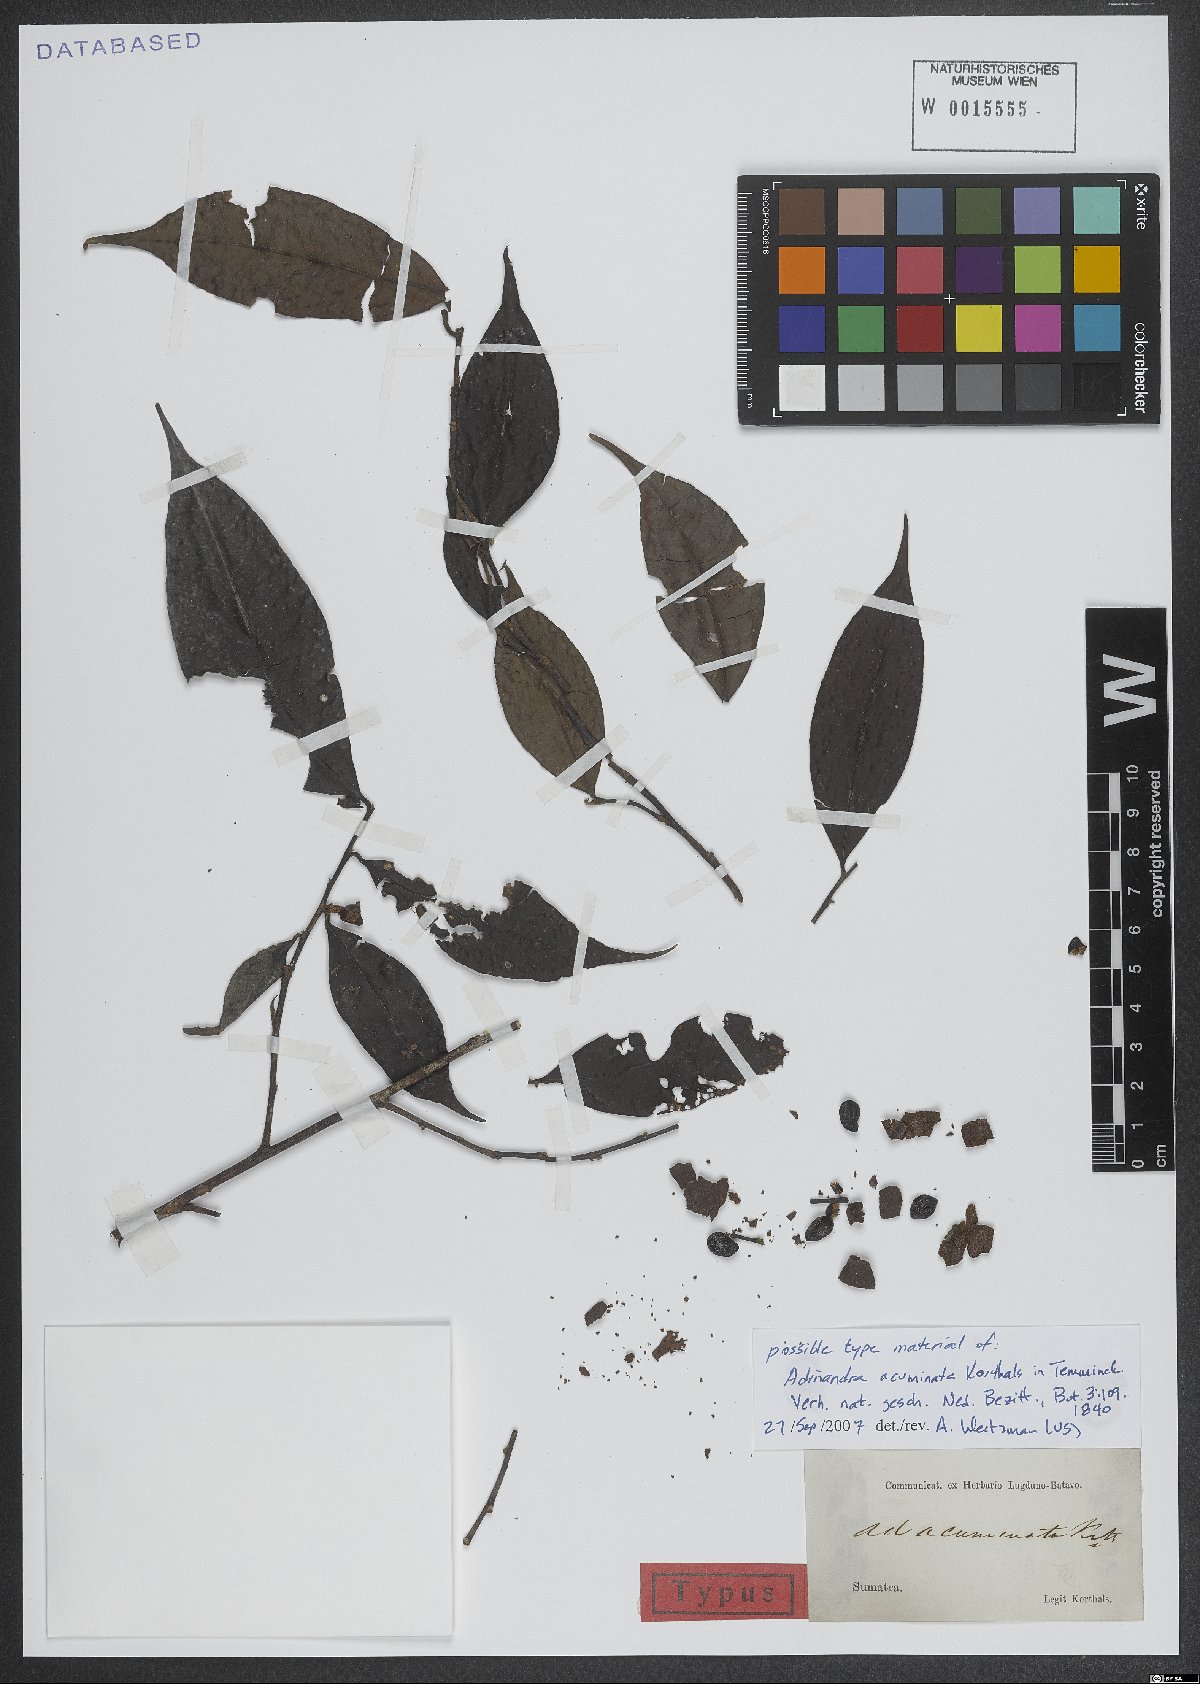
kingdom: Plantae
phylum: Tracheophyta
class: Magnoliopsida
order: Ericales
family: Pentaphylacaceae
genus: Adinandra
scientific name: Adinandra acuminata
